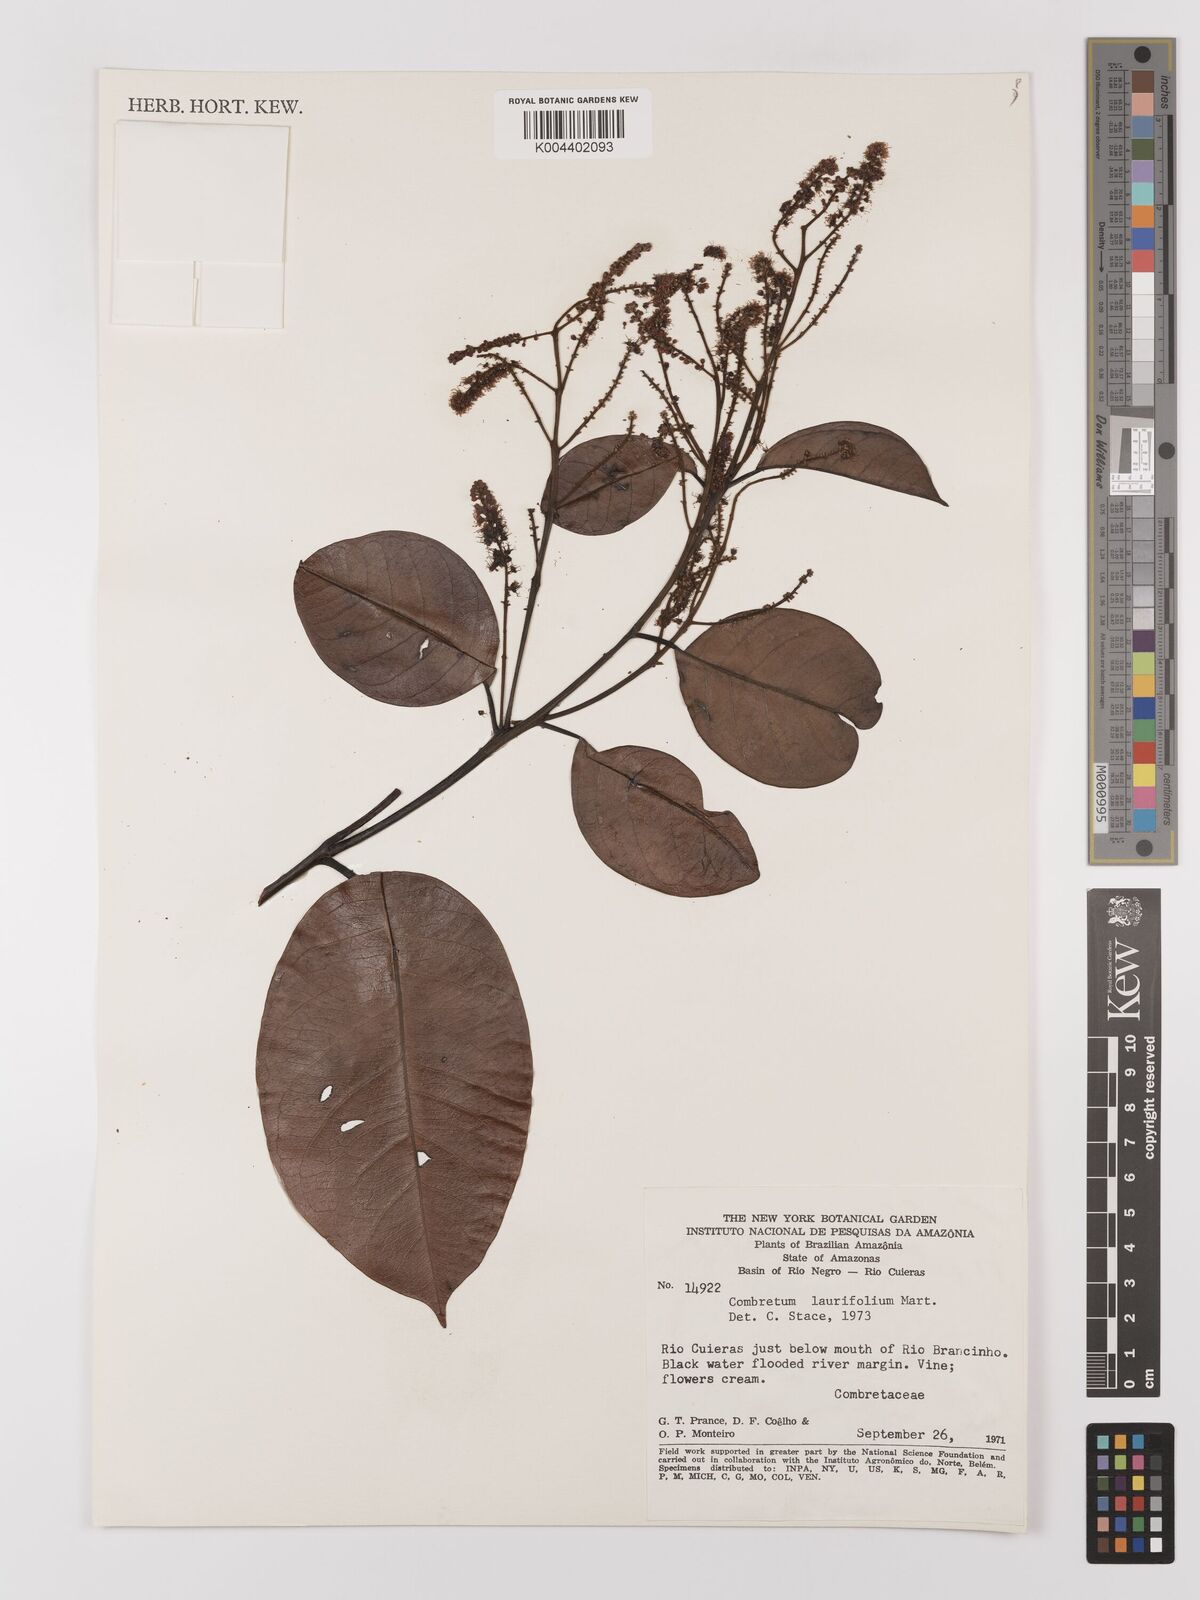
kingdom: Plantae
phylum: Tracheophyta
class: Magnoliopsida
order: Myrtales
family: Combretaceae
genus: Combretum
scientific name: Combretum
